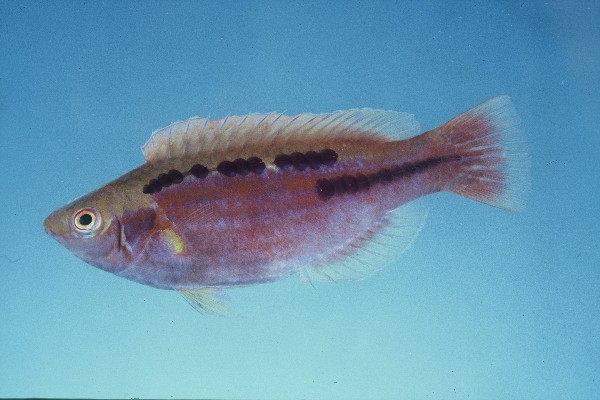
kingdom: Animalia
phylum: Chordata
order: Perciformes
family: Labridae
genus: Cirrhilabrus
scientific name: Cirrhilabrus lubbocki
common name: Lubbock's wrasse
